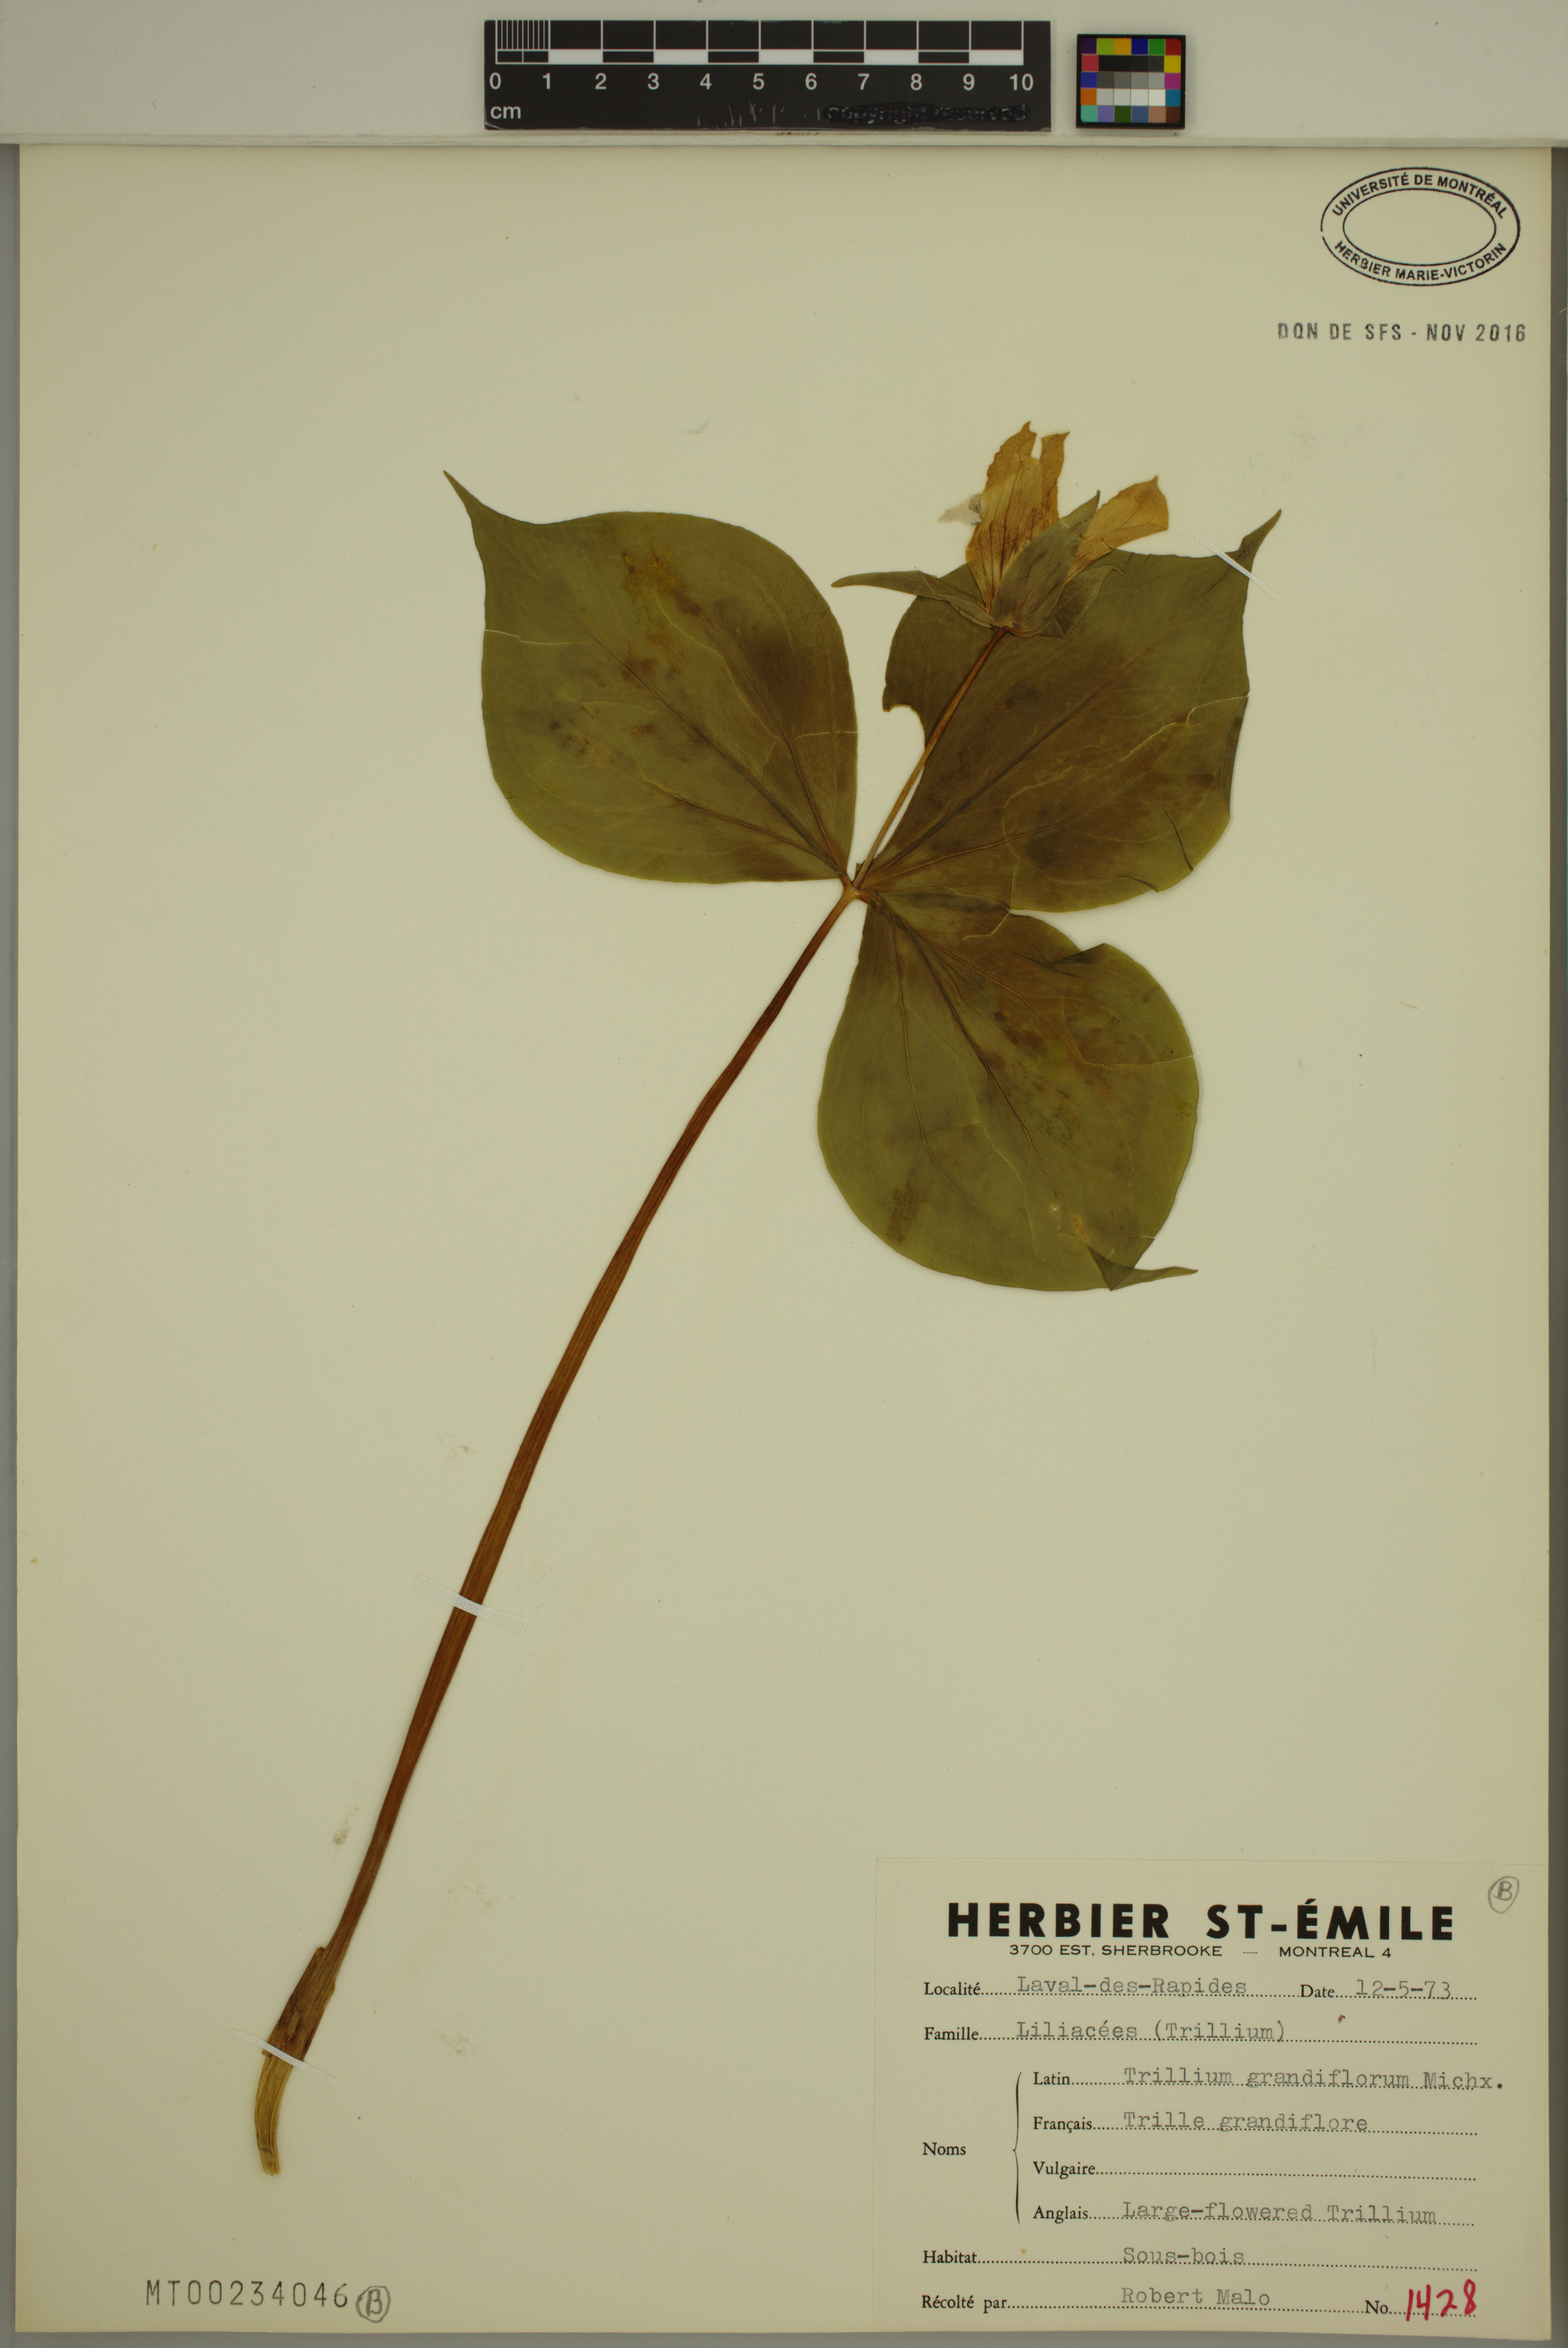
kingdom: Plantae
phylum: Tracheophyta
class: Liliopsida
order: Liliales
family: Melanthiaceae
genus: Trillium
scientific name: Trillium grandiflorum
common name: Great white trillium
